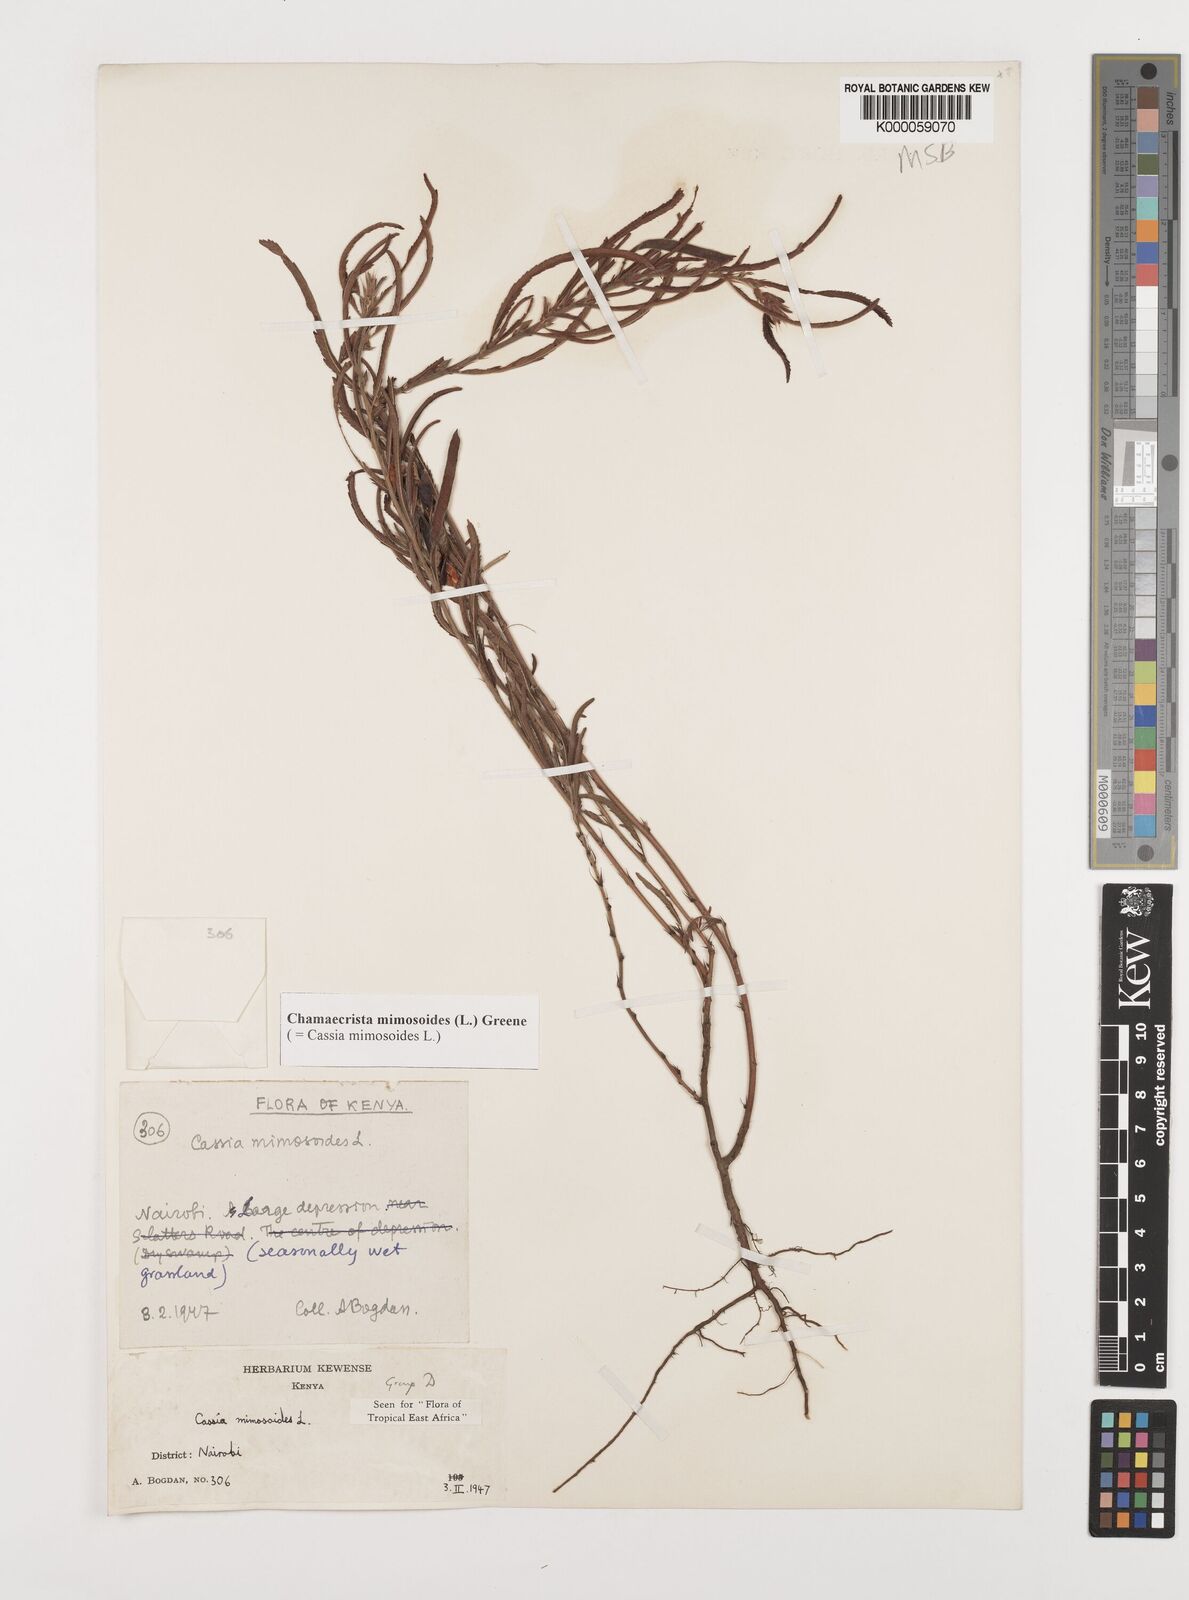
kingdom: Plantae
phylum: Tracheophyta
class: Magnoliopsida
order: Fabales
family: Fabaceae
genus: Chamaecrista
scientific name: Chamaecrista mimosoides
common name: Fish-bone cassia
